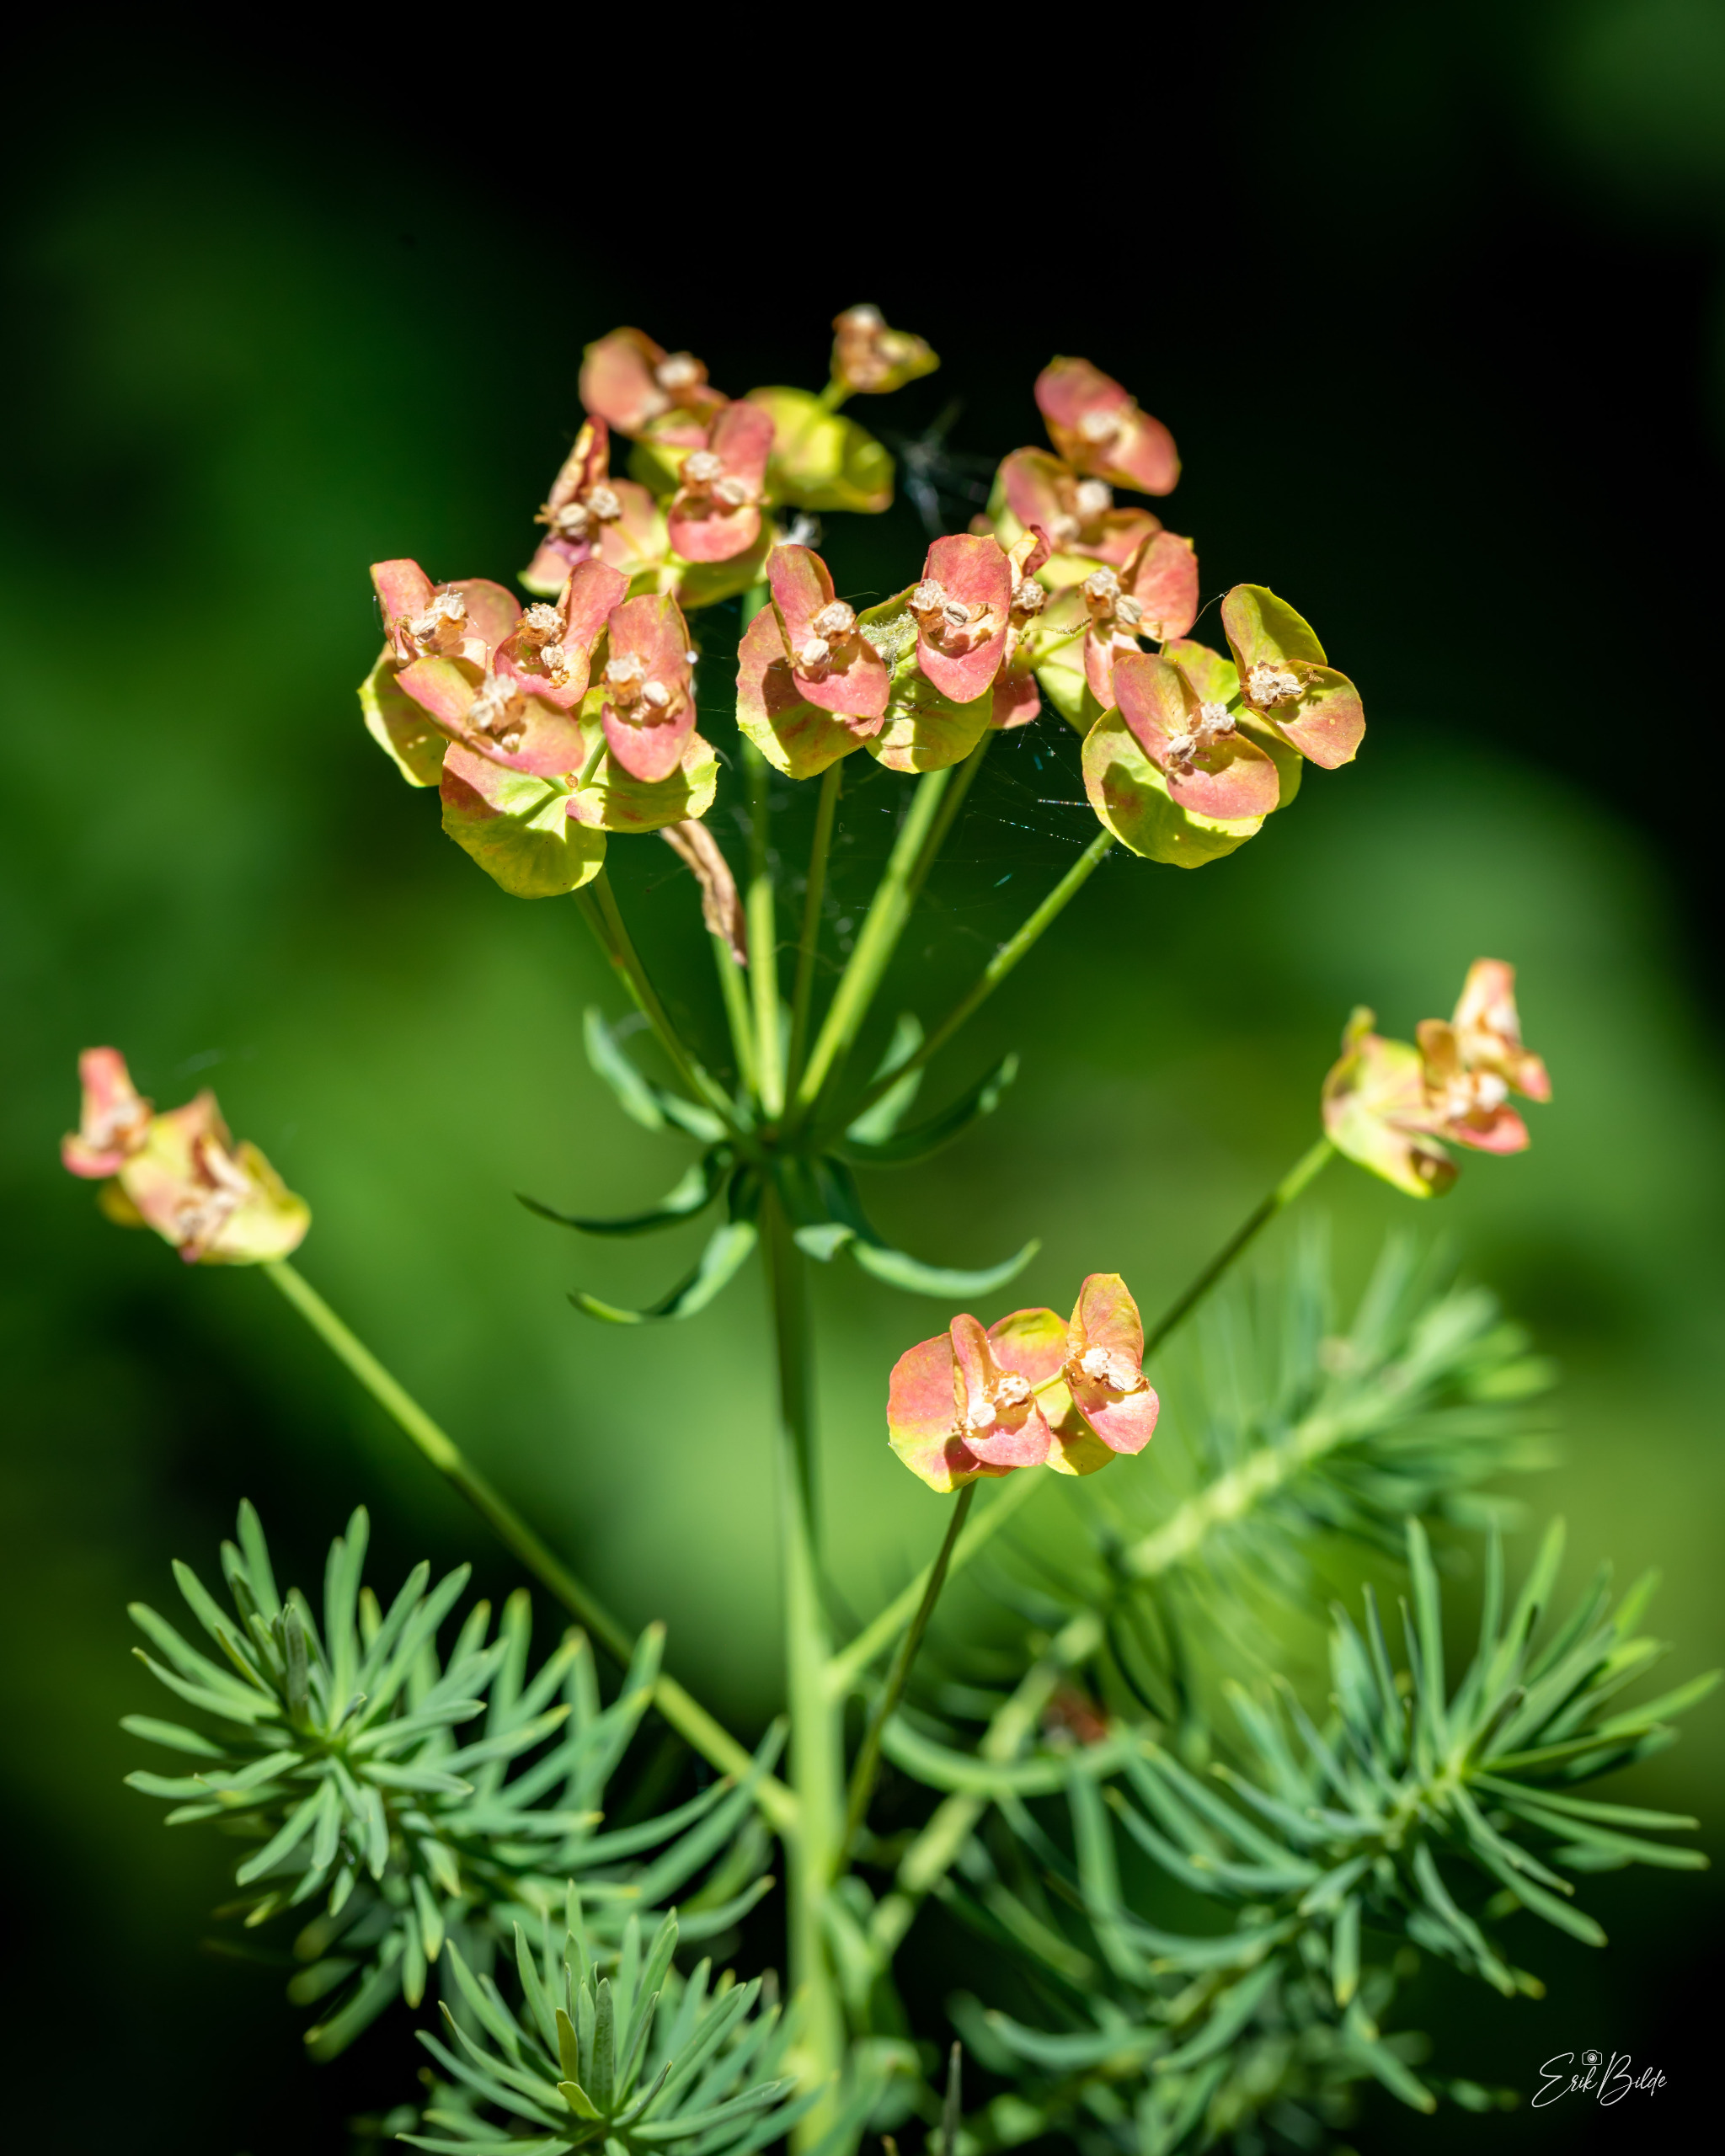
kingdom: Plantae
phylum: Tracheophyta
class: Magnoliopsida
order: Malpighiales
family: Euphorbiaceae
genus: Euphorbia
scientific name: Euphorbia cyparissias
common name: Cypres-vortemælk
